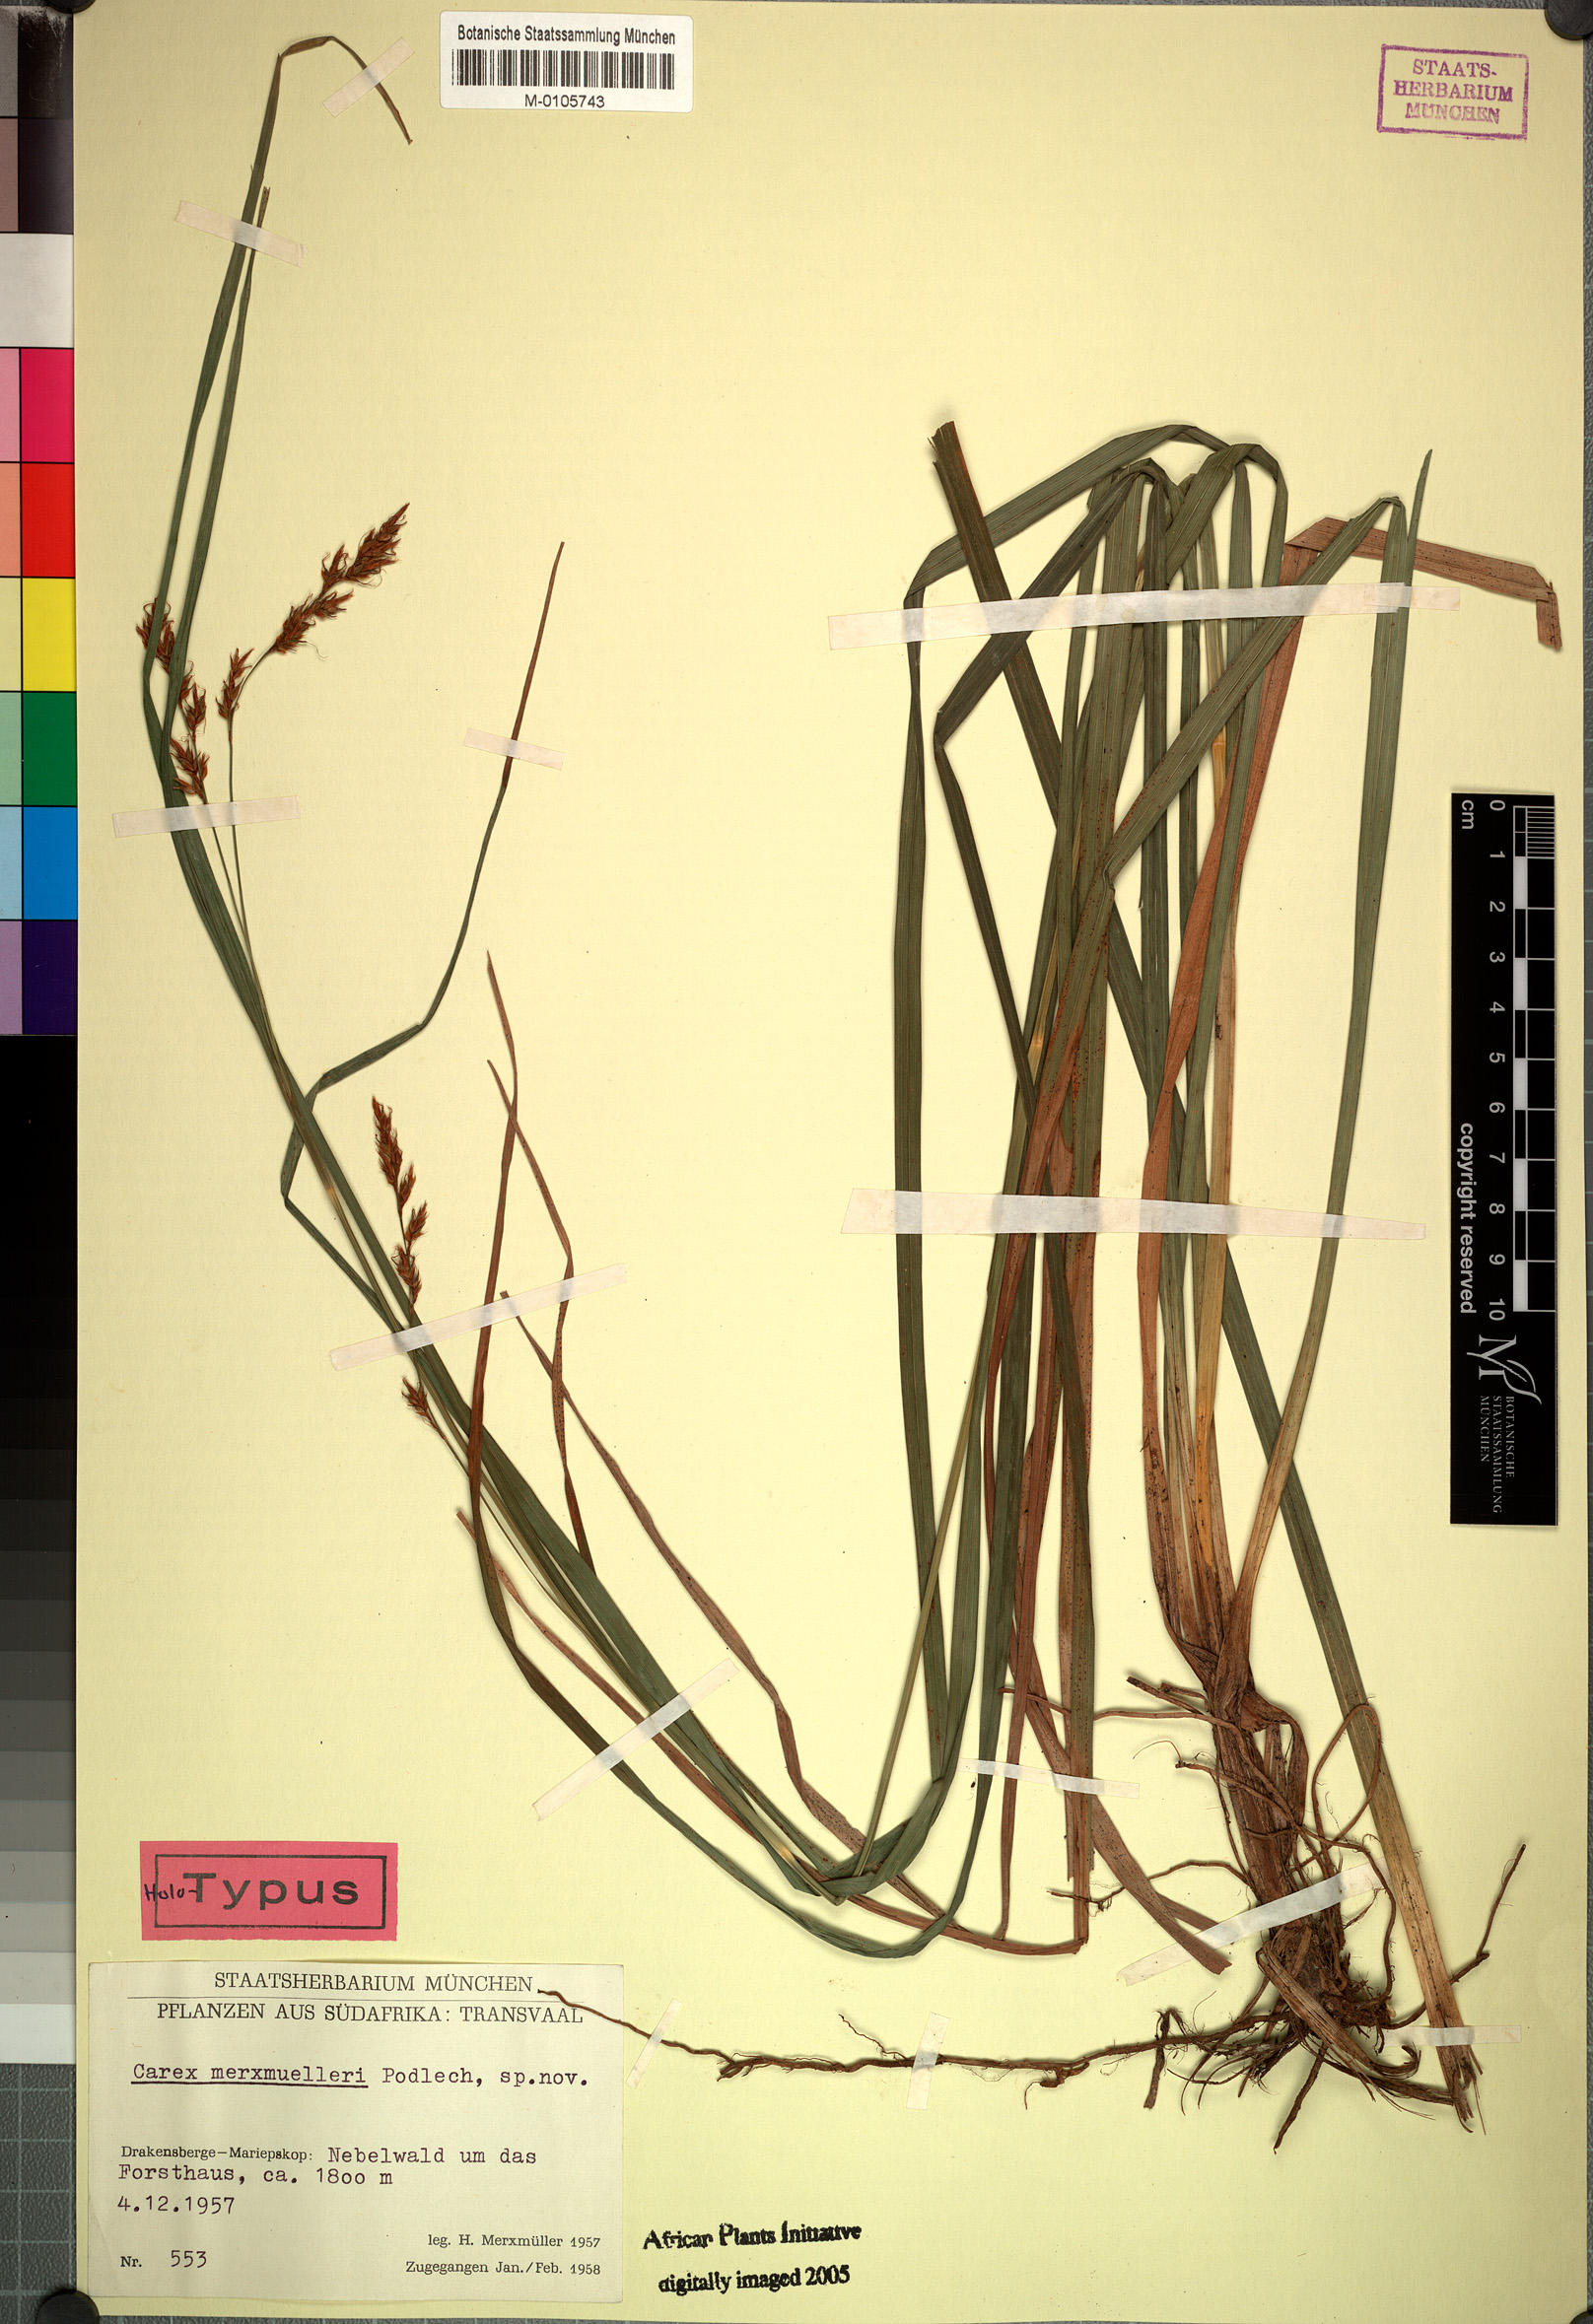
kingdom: Plantae
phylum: Tracheophyta
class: Liliopsida
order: Poales
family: Cyperaceae
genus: Carex
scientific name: Carex merxmuelleri
